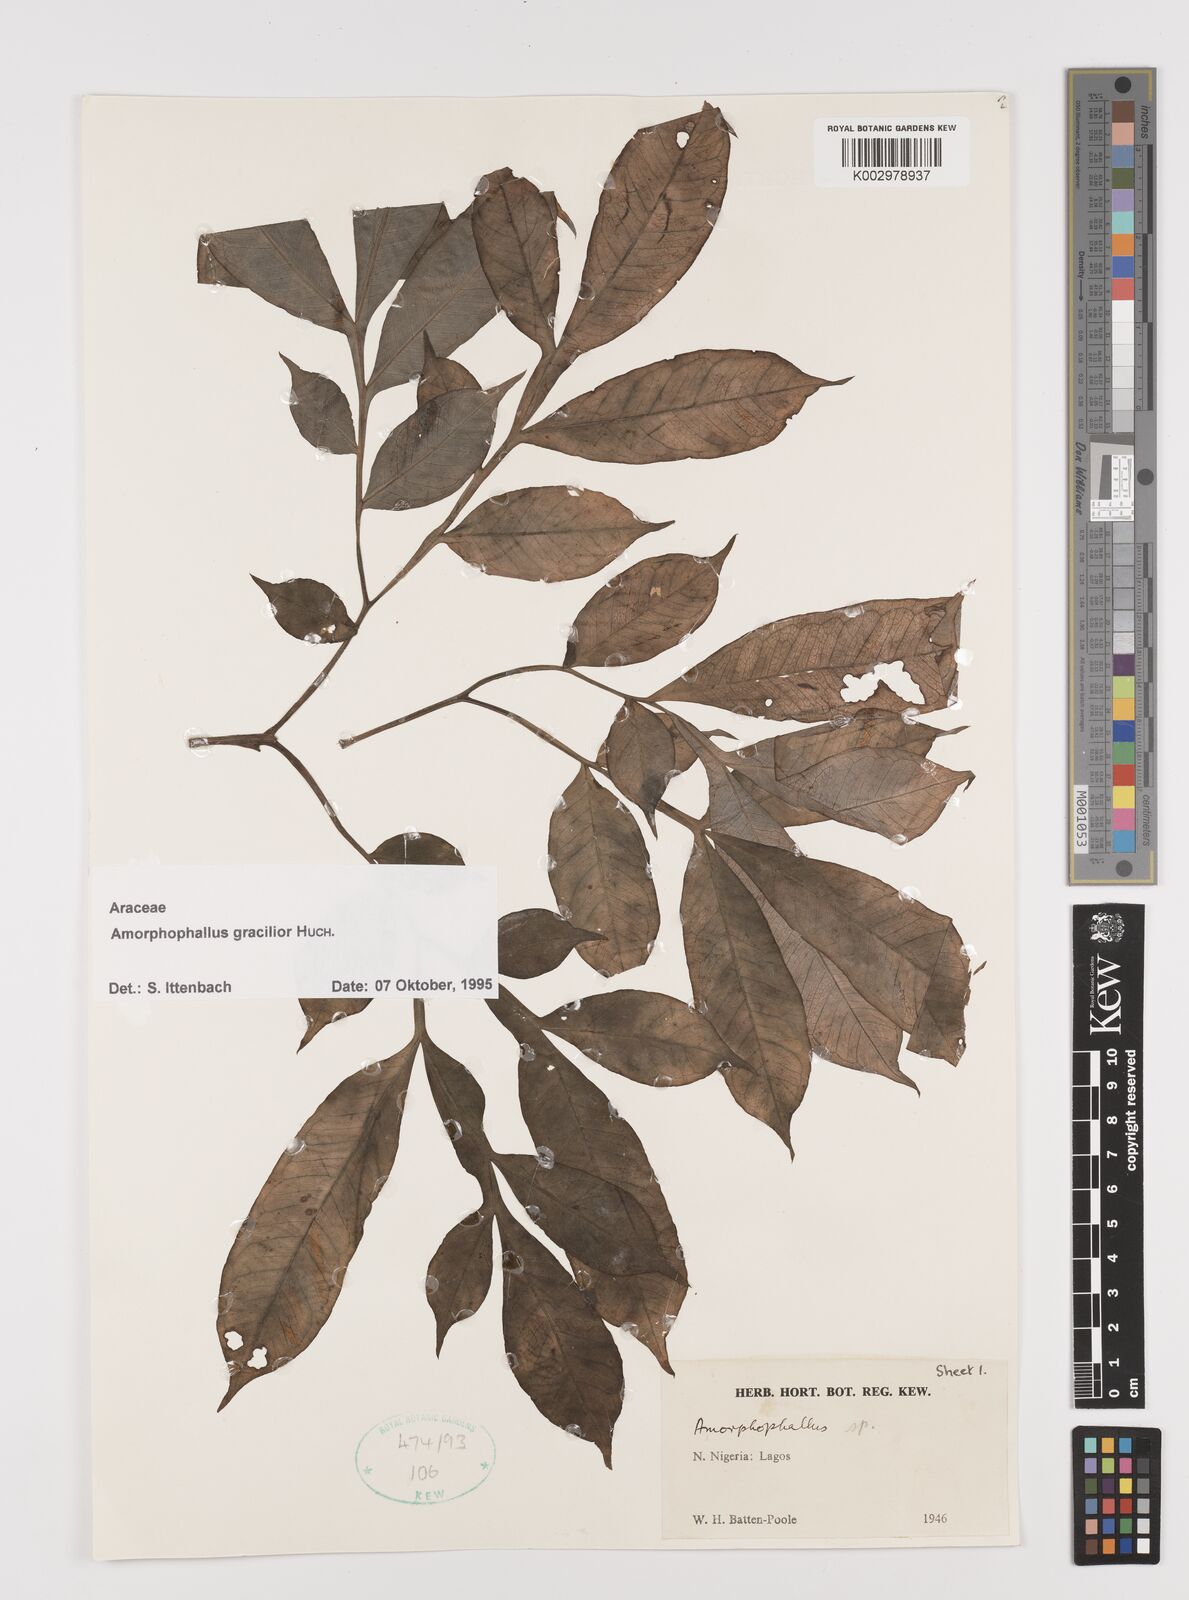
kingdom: Plantae
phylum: Tracheophyta
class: Liliopsida
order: Alismatales
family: Araceae
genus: Amorphophallus
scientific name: Amorphophallus gracilior
